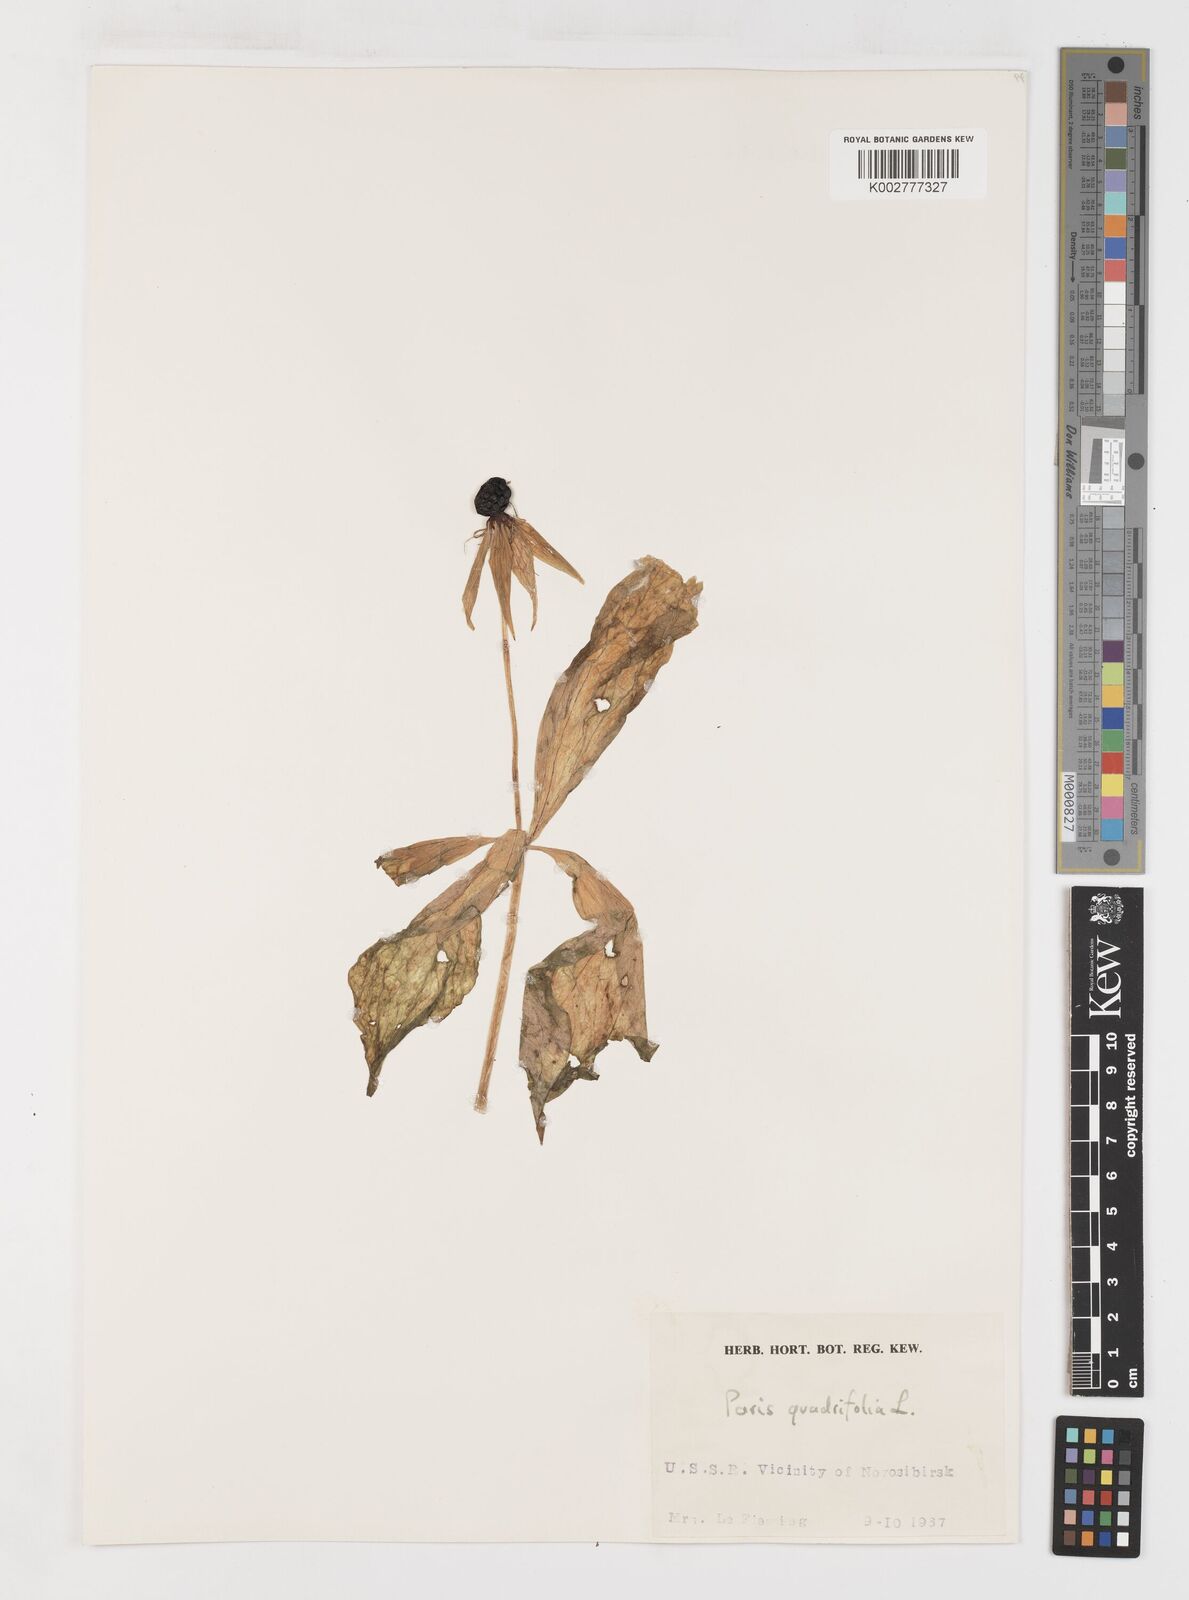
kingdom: Plantae
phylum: Tracheophyta
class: Liliopsida
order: Liliales
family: Melanthiaceae
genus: Paris
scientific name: Paris quadrifolia
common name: Herb-paris
